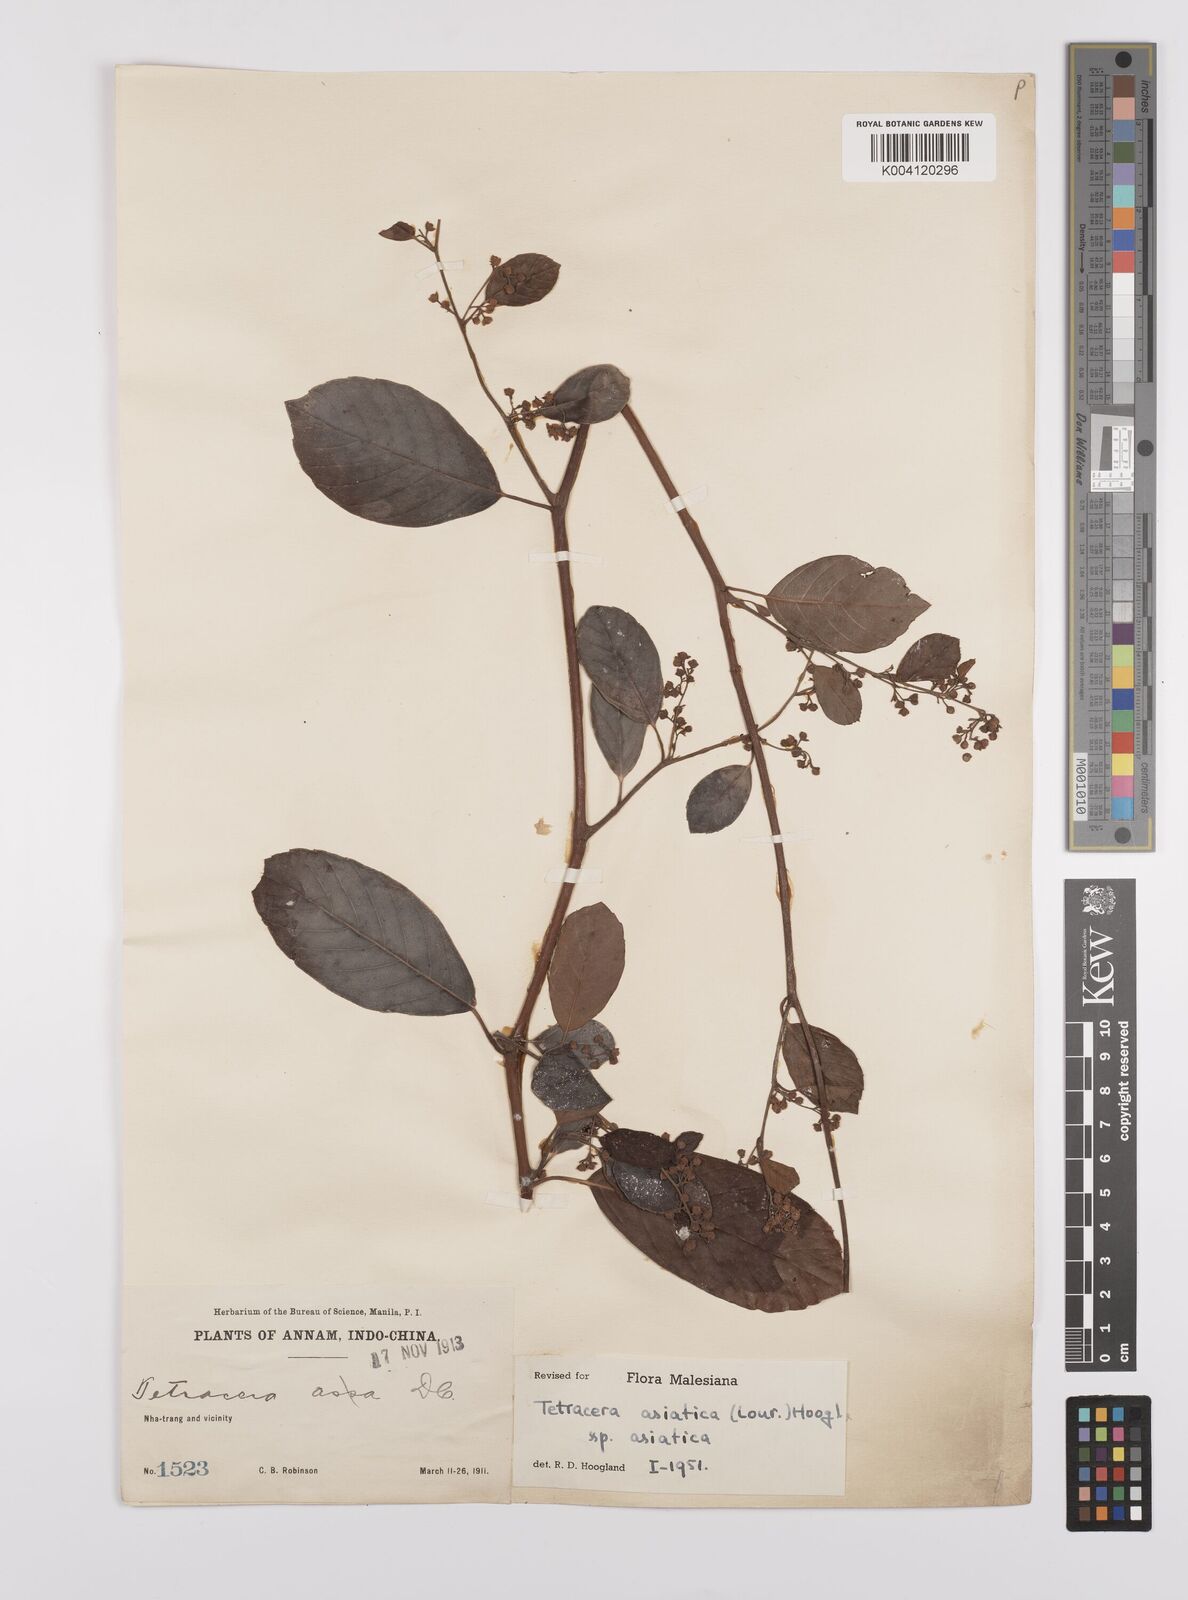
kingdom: Plantae
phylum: Tracheophyta
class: Magnoliopsida
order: Dilleniales
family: Dilleniaceae
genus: Tetracera
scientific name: Tetracera sarmentosa
